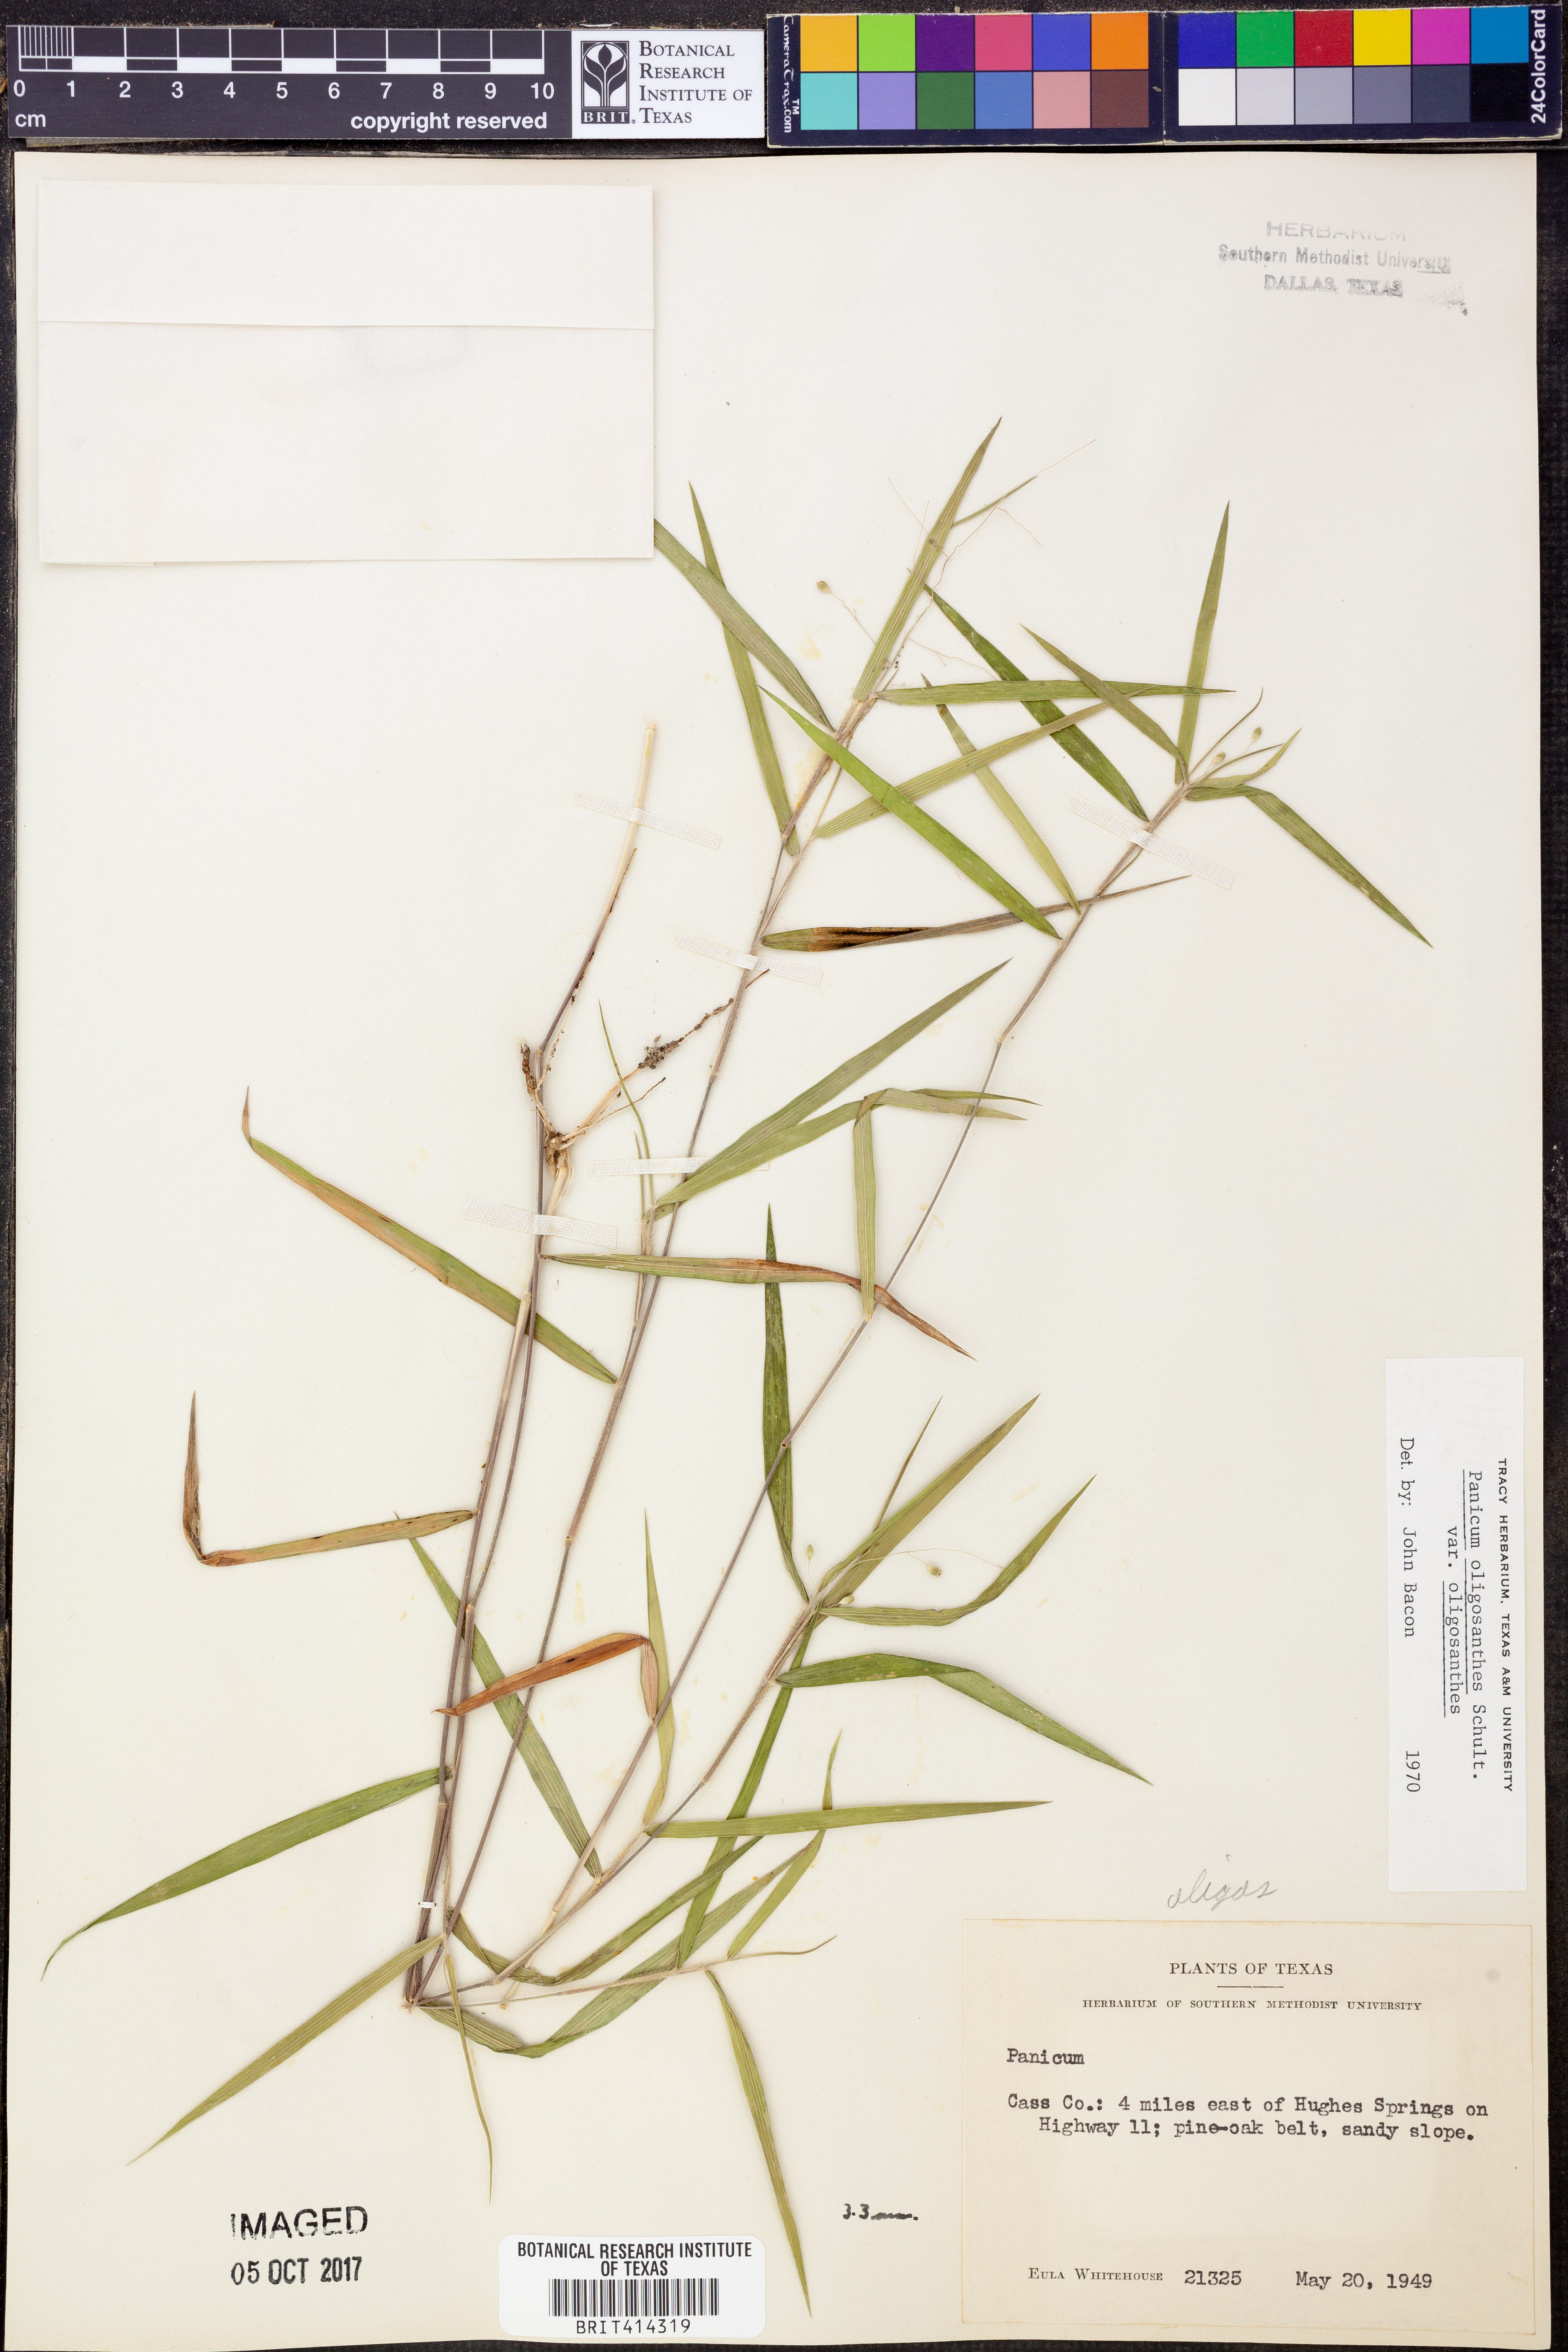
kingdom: Plantae
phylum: Tracheophyta
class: Liliopsida
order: Poales
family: Poaceae
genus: Dichanthelium
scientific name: Dichanthelium oligosanthes
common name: Few-anther obscuregrass
